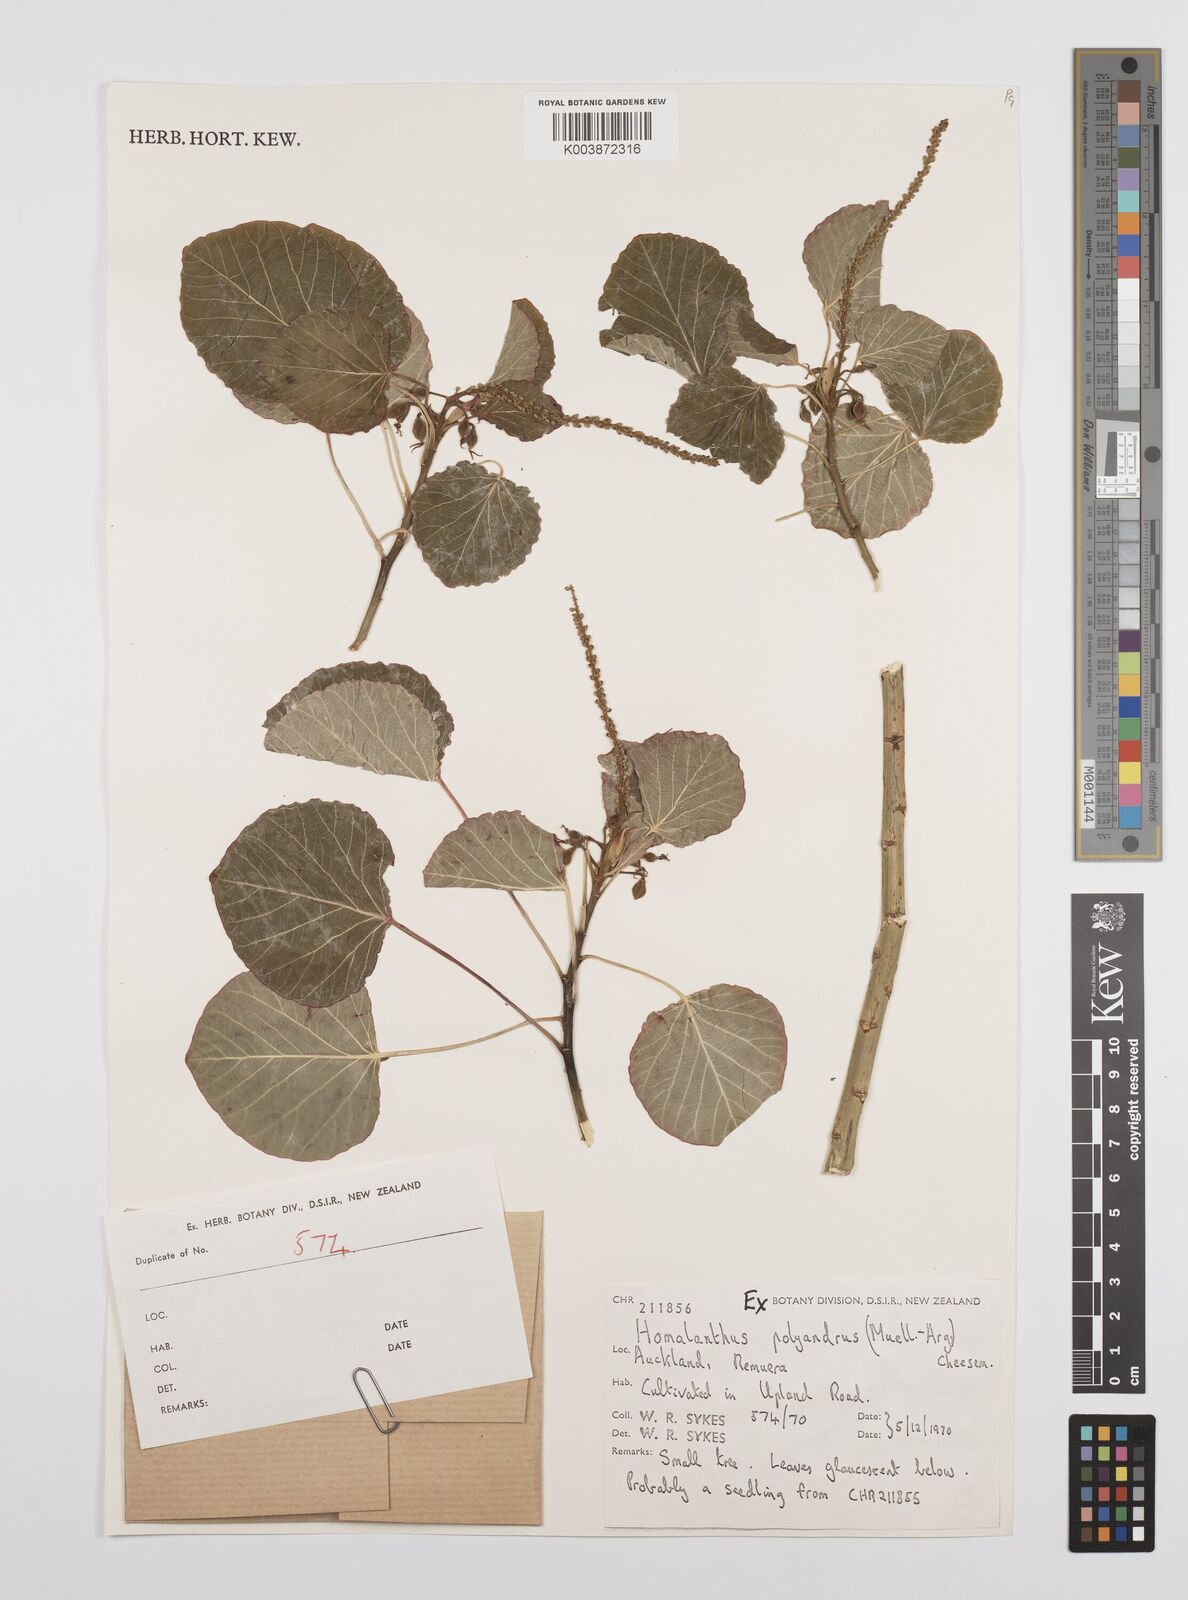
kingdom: Plantae
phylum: Tracheophyta
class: Magnoliopsida
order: Malpighiales
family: Euphorbiaceae
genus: Homalanthus
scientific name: Homalanthus polyandrus
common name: Kermadec poplar
